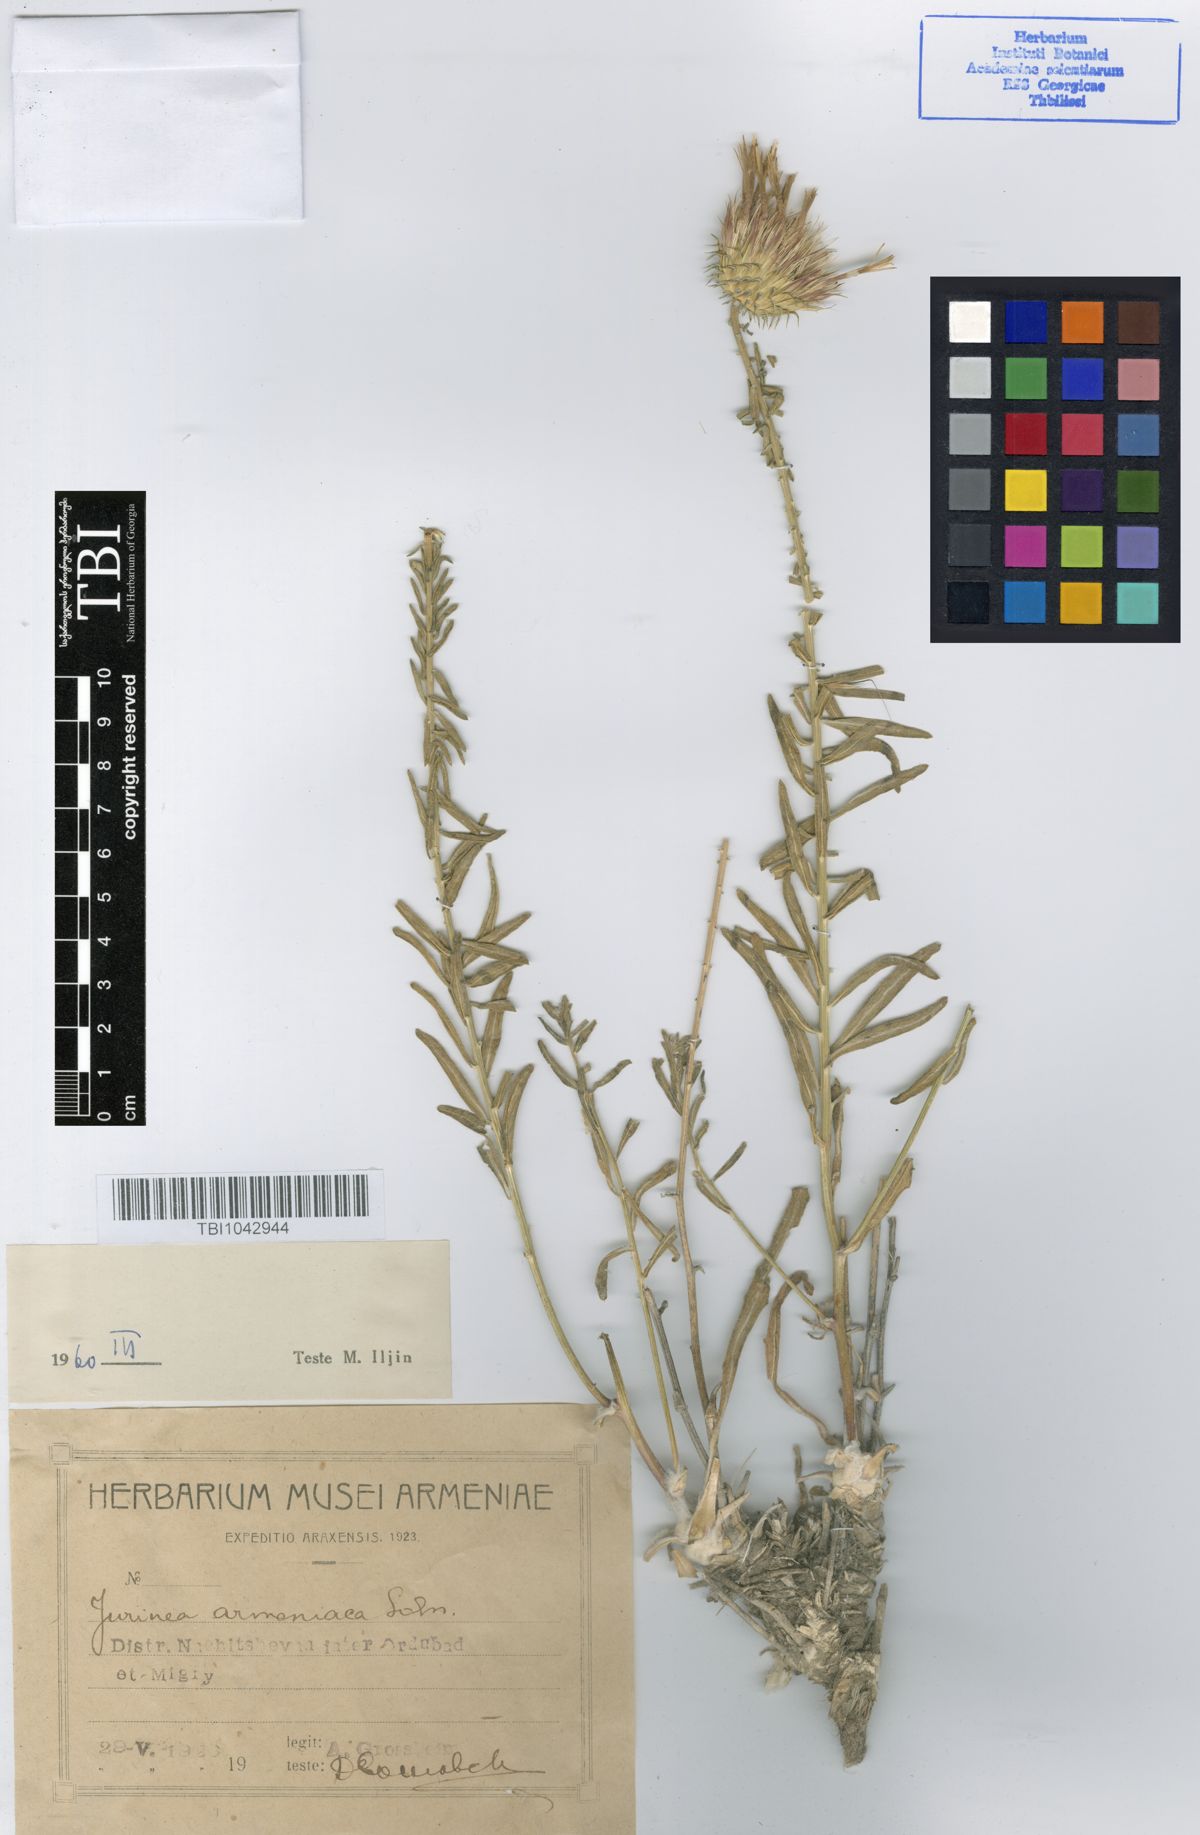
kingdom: Plantae
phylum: Tracheophyta
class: Magnoliopsida
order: Asterales
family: Asteraceae
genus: Jurinea
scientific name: Jurinea elegans
